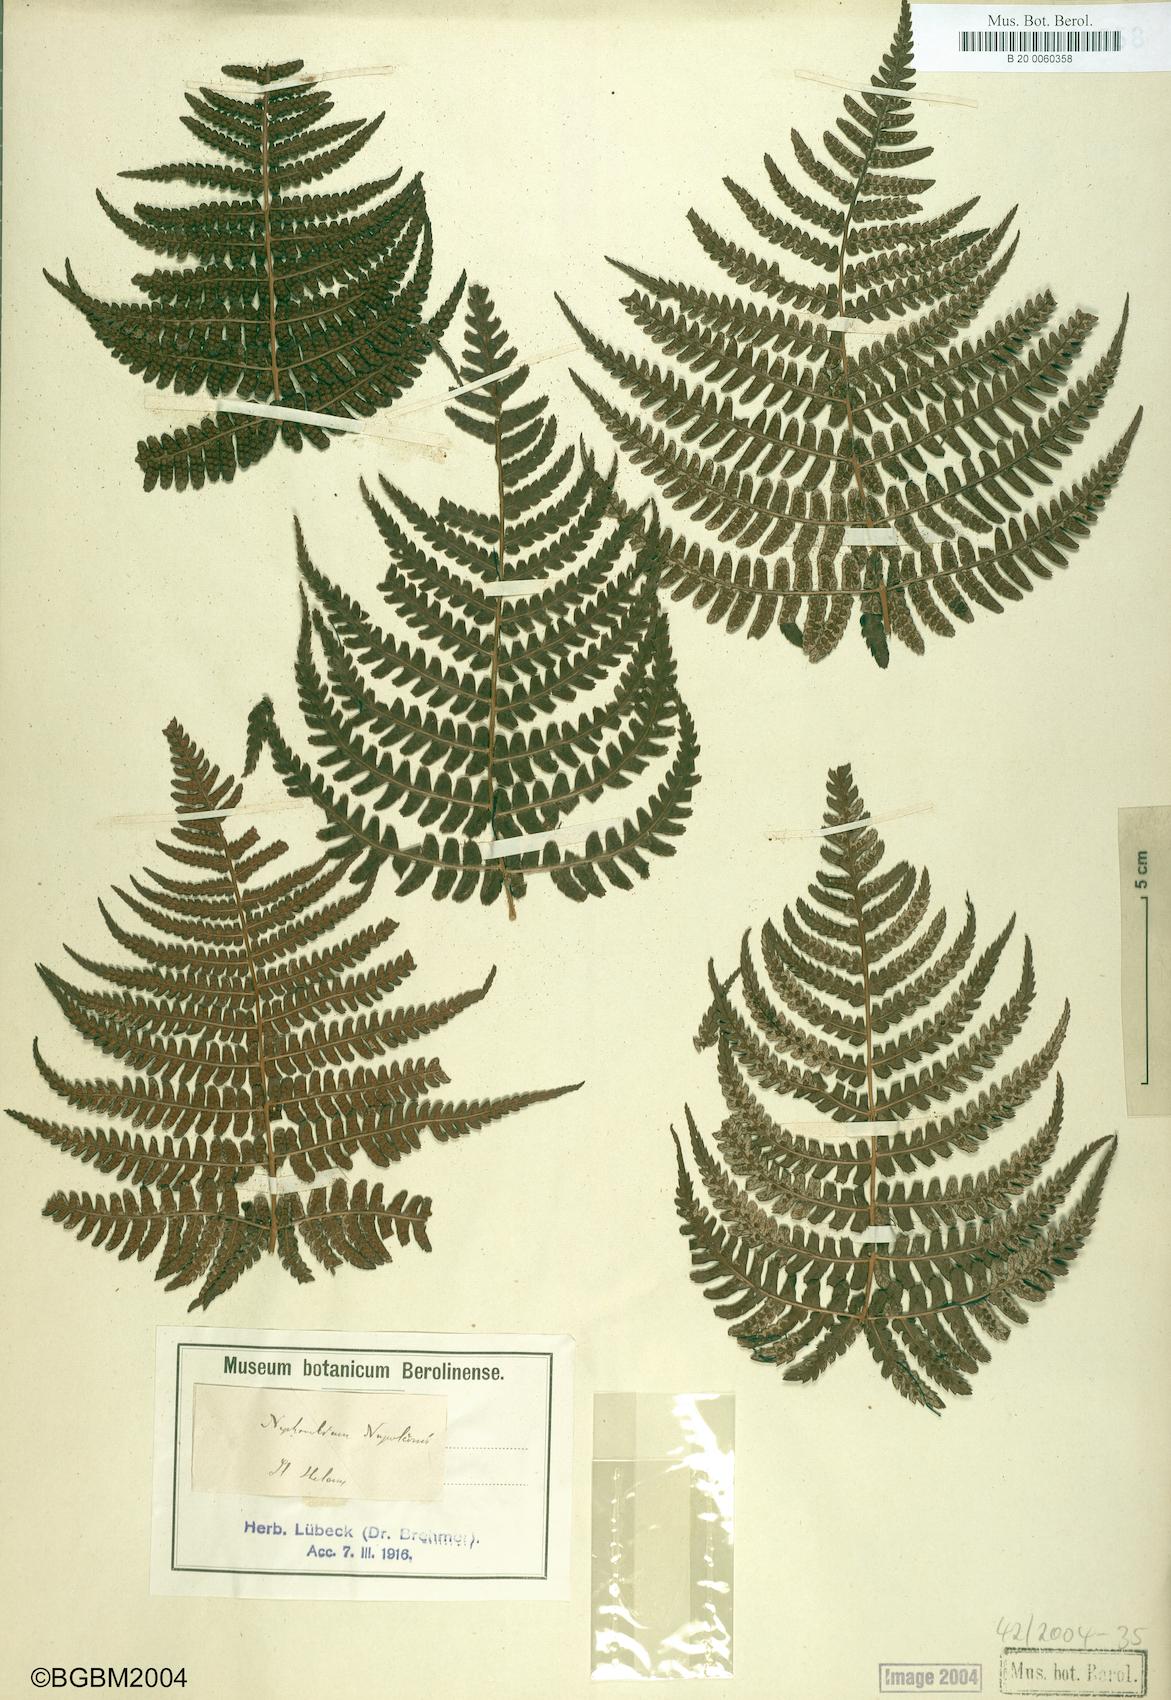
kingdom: Plantae
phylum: Tracheophyta
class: Polypodiopsida
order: Polypodiales
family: Dryopteridaceae
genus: Dryopteris
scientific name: Dryopteris napoleonis
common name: Small kidney fern
